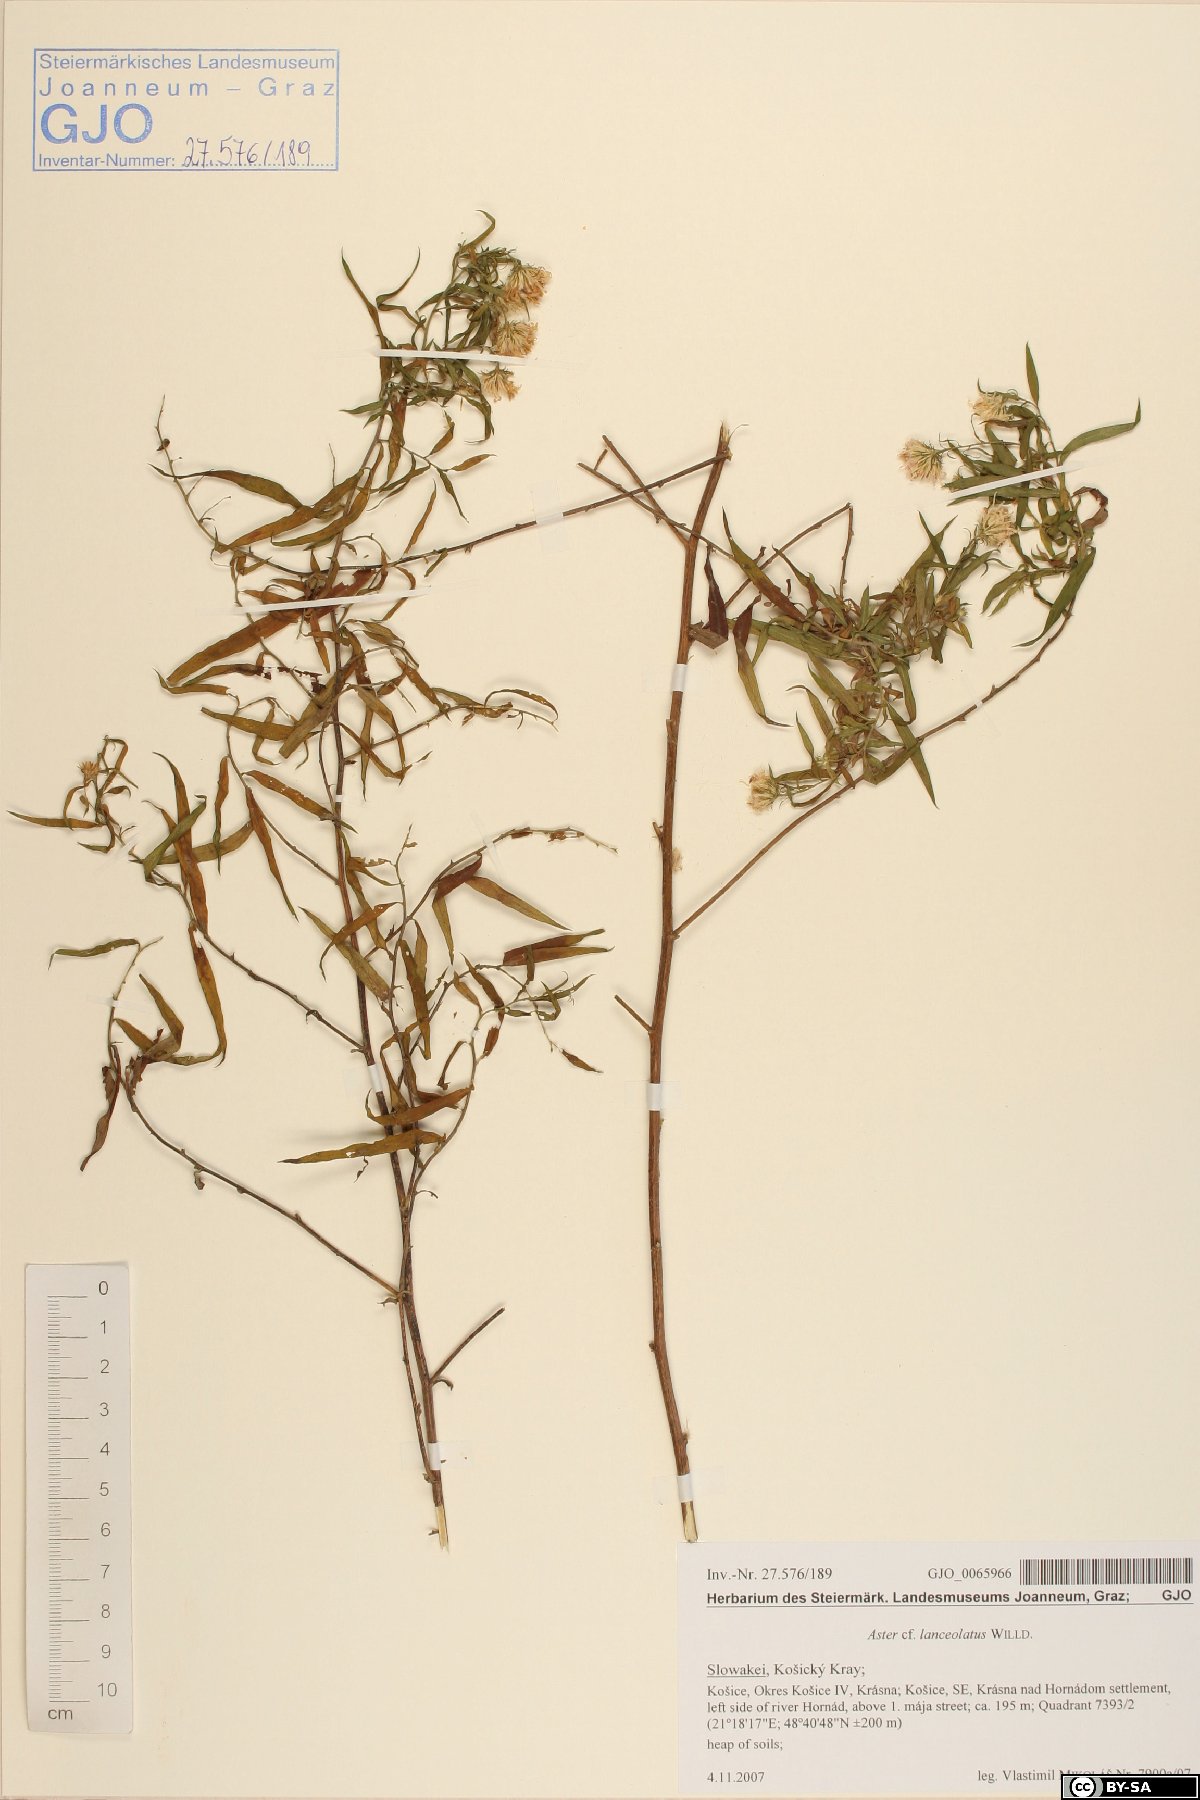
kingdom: Plantae
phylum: Tracheophyta
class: Magnoliopsida
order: Asterales
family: Asteraceae
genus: Symphyotrichum
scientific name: Symphyotrichum lanceolatum
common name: Panicled aster
